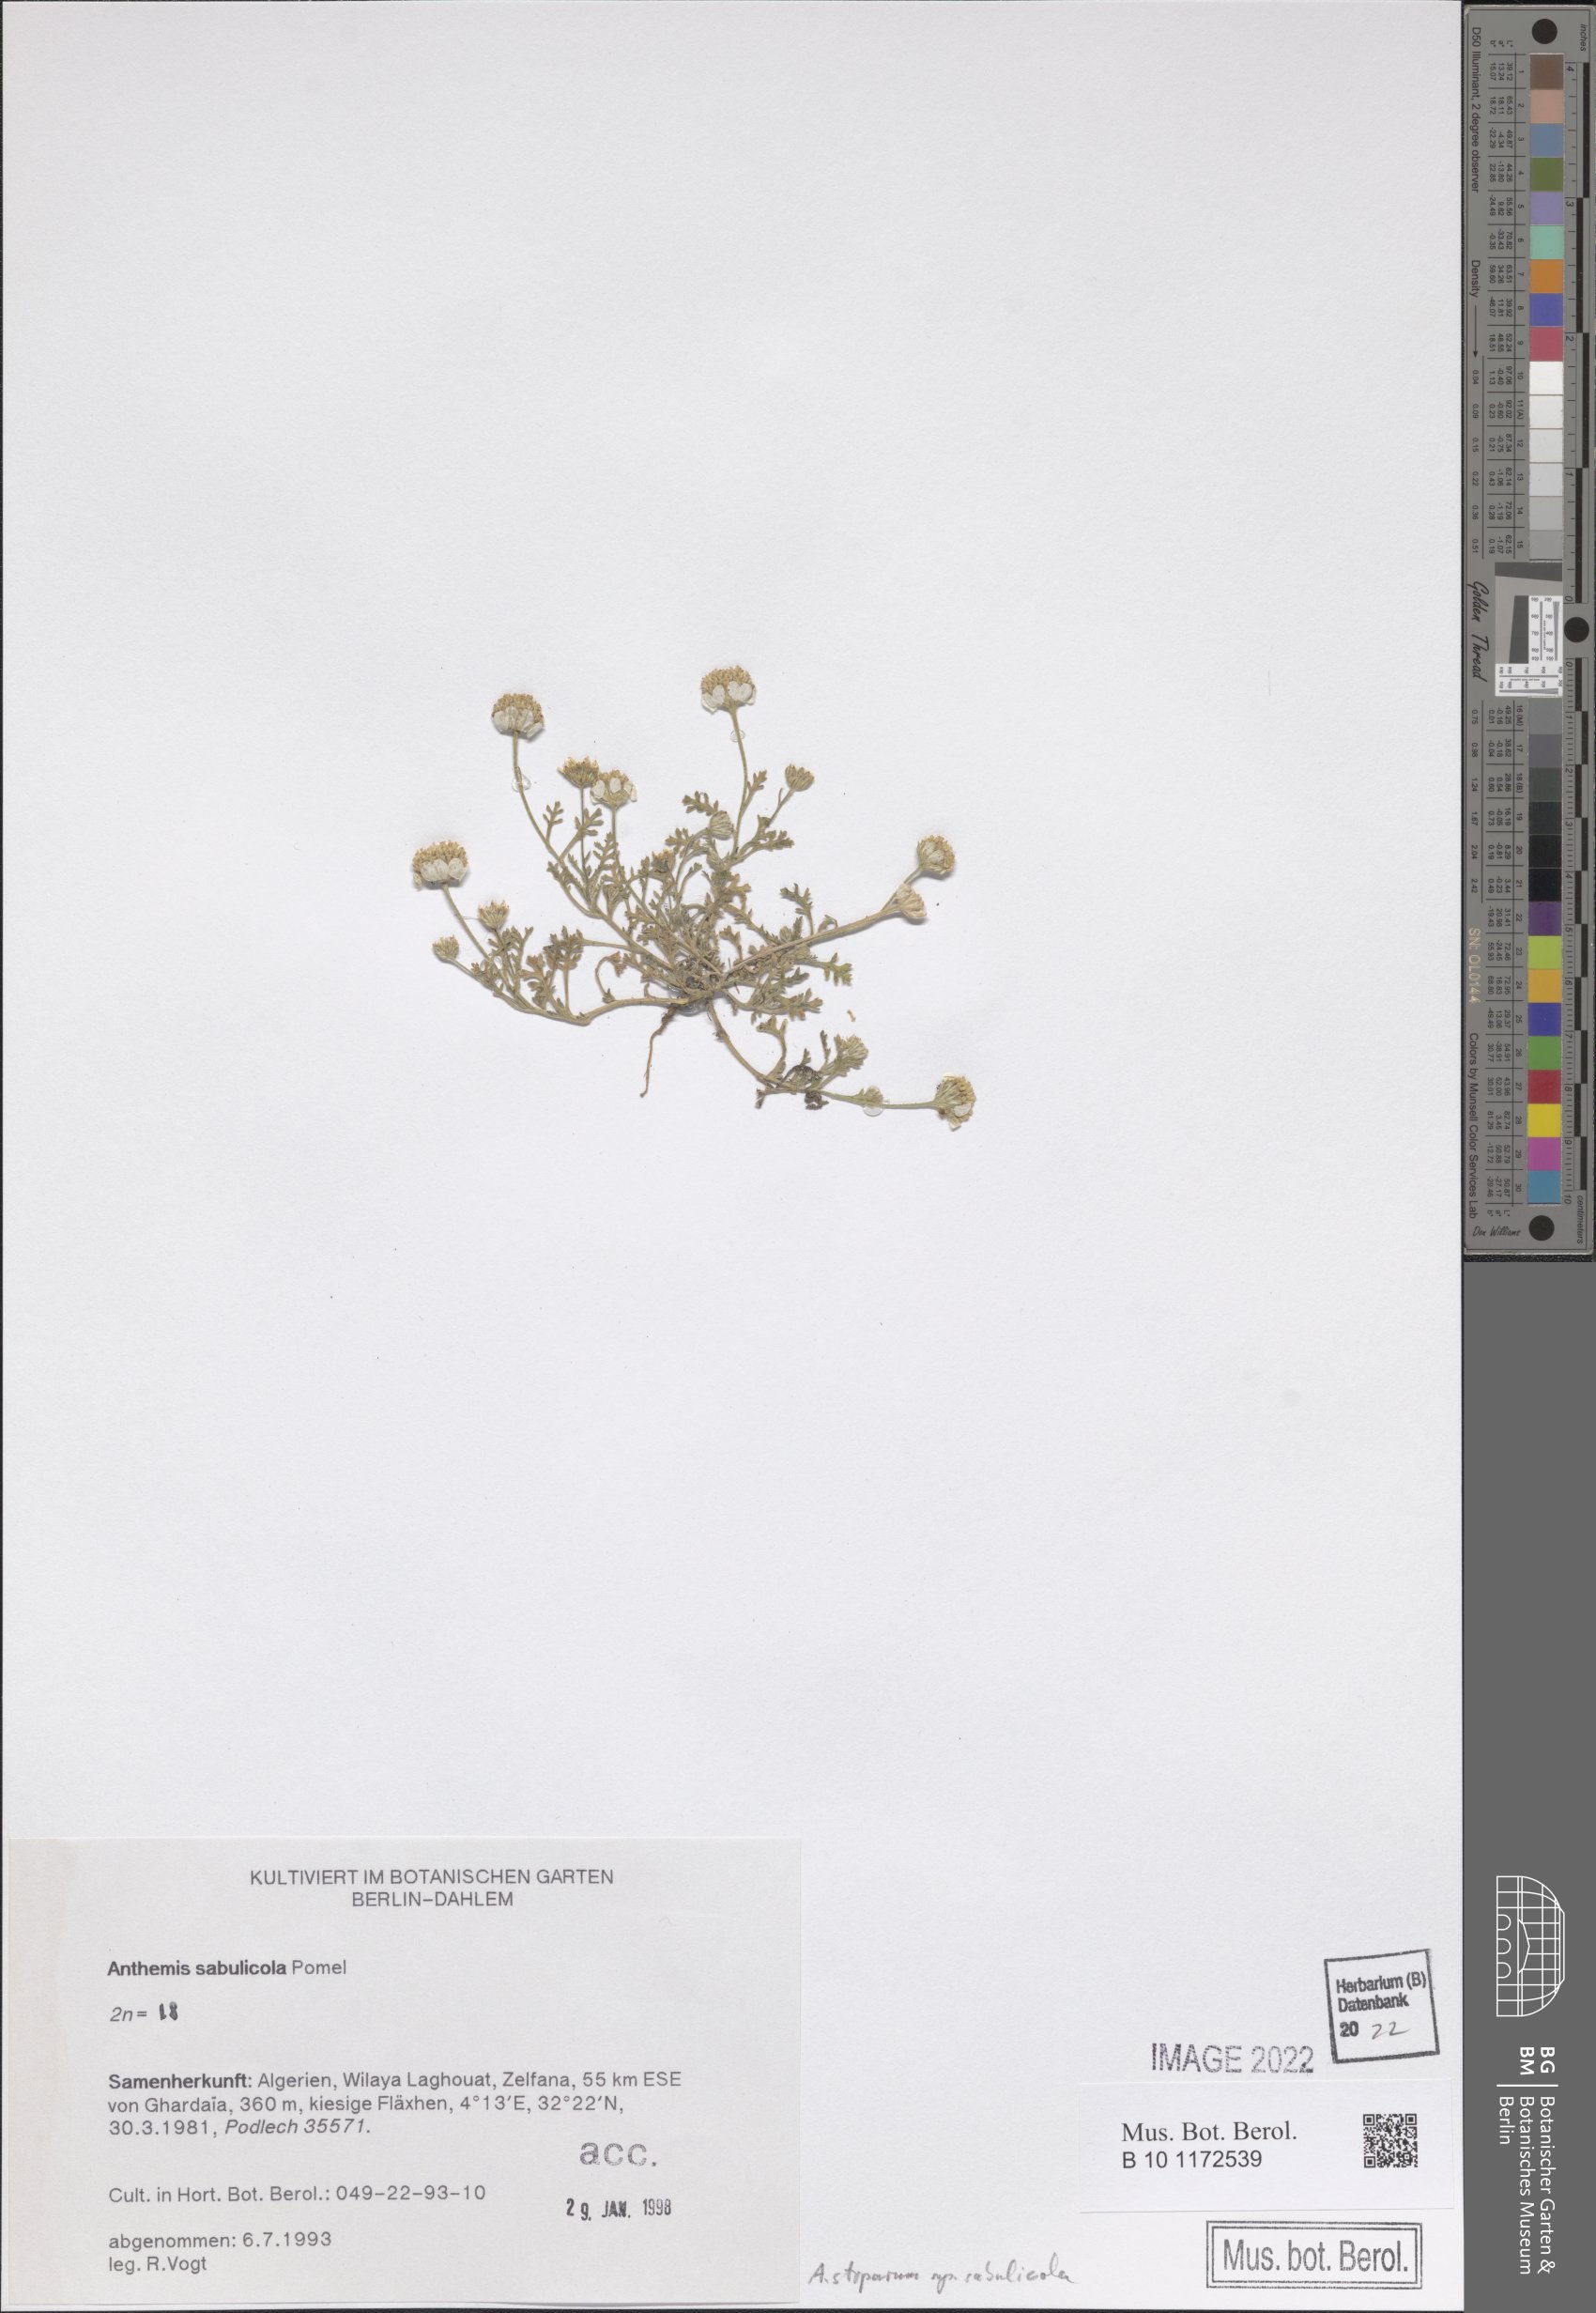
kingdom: Plantae
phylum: Tracheophyta
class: Magnoliopsida
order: Asterales
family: Asteraceae
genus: Anthemis
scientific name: Anthemis stiparum
